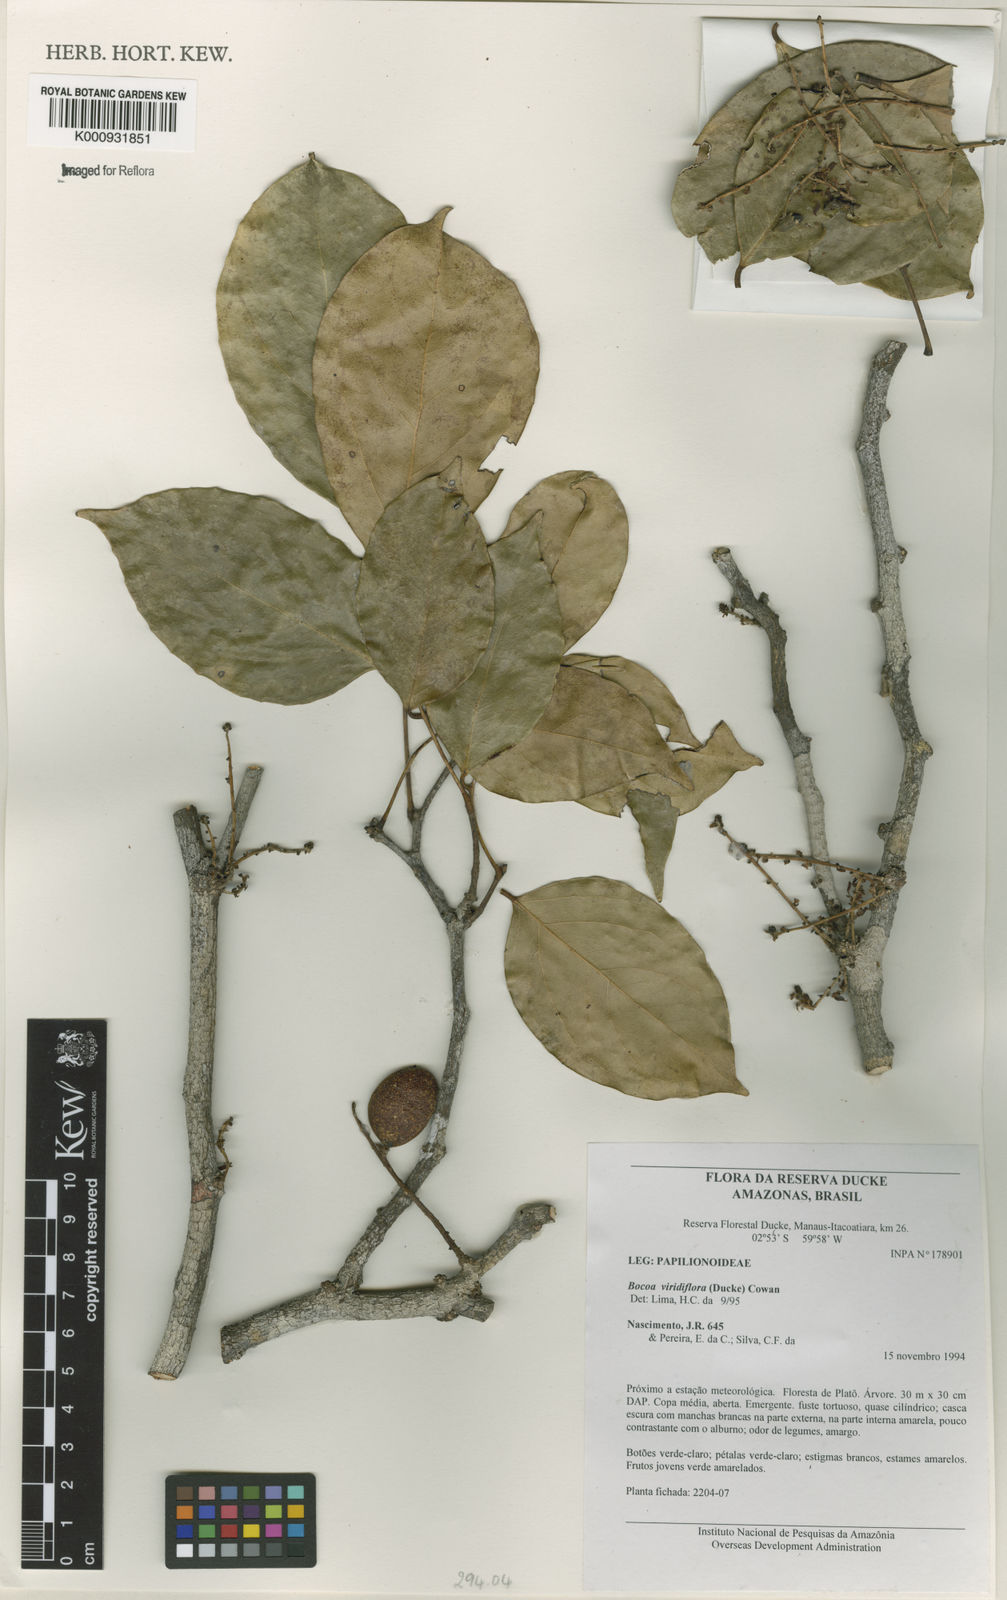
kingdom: Plantae
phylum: Tracheophyta
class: Magnoliopsida
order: Fabales
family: Fabaceae
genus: Bocoa
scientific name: Bocoa viridiflora
